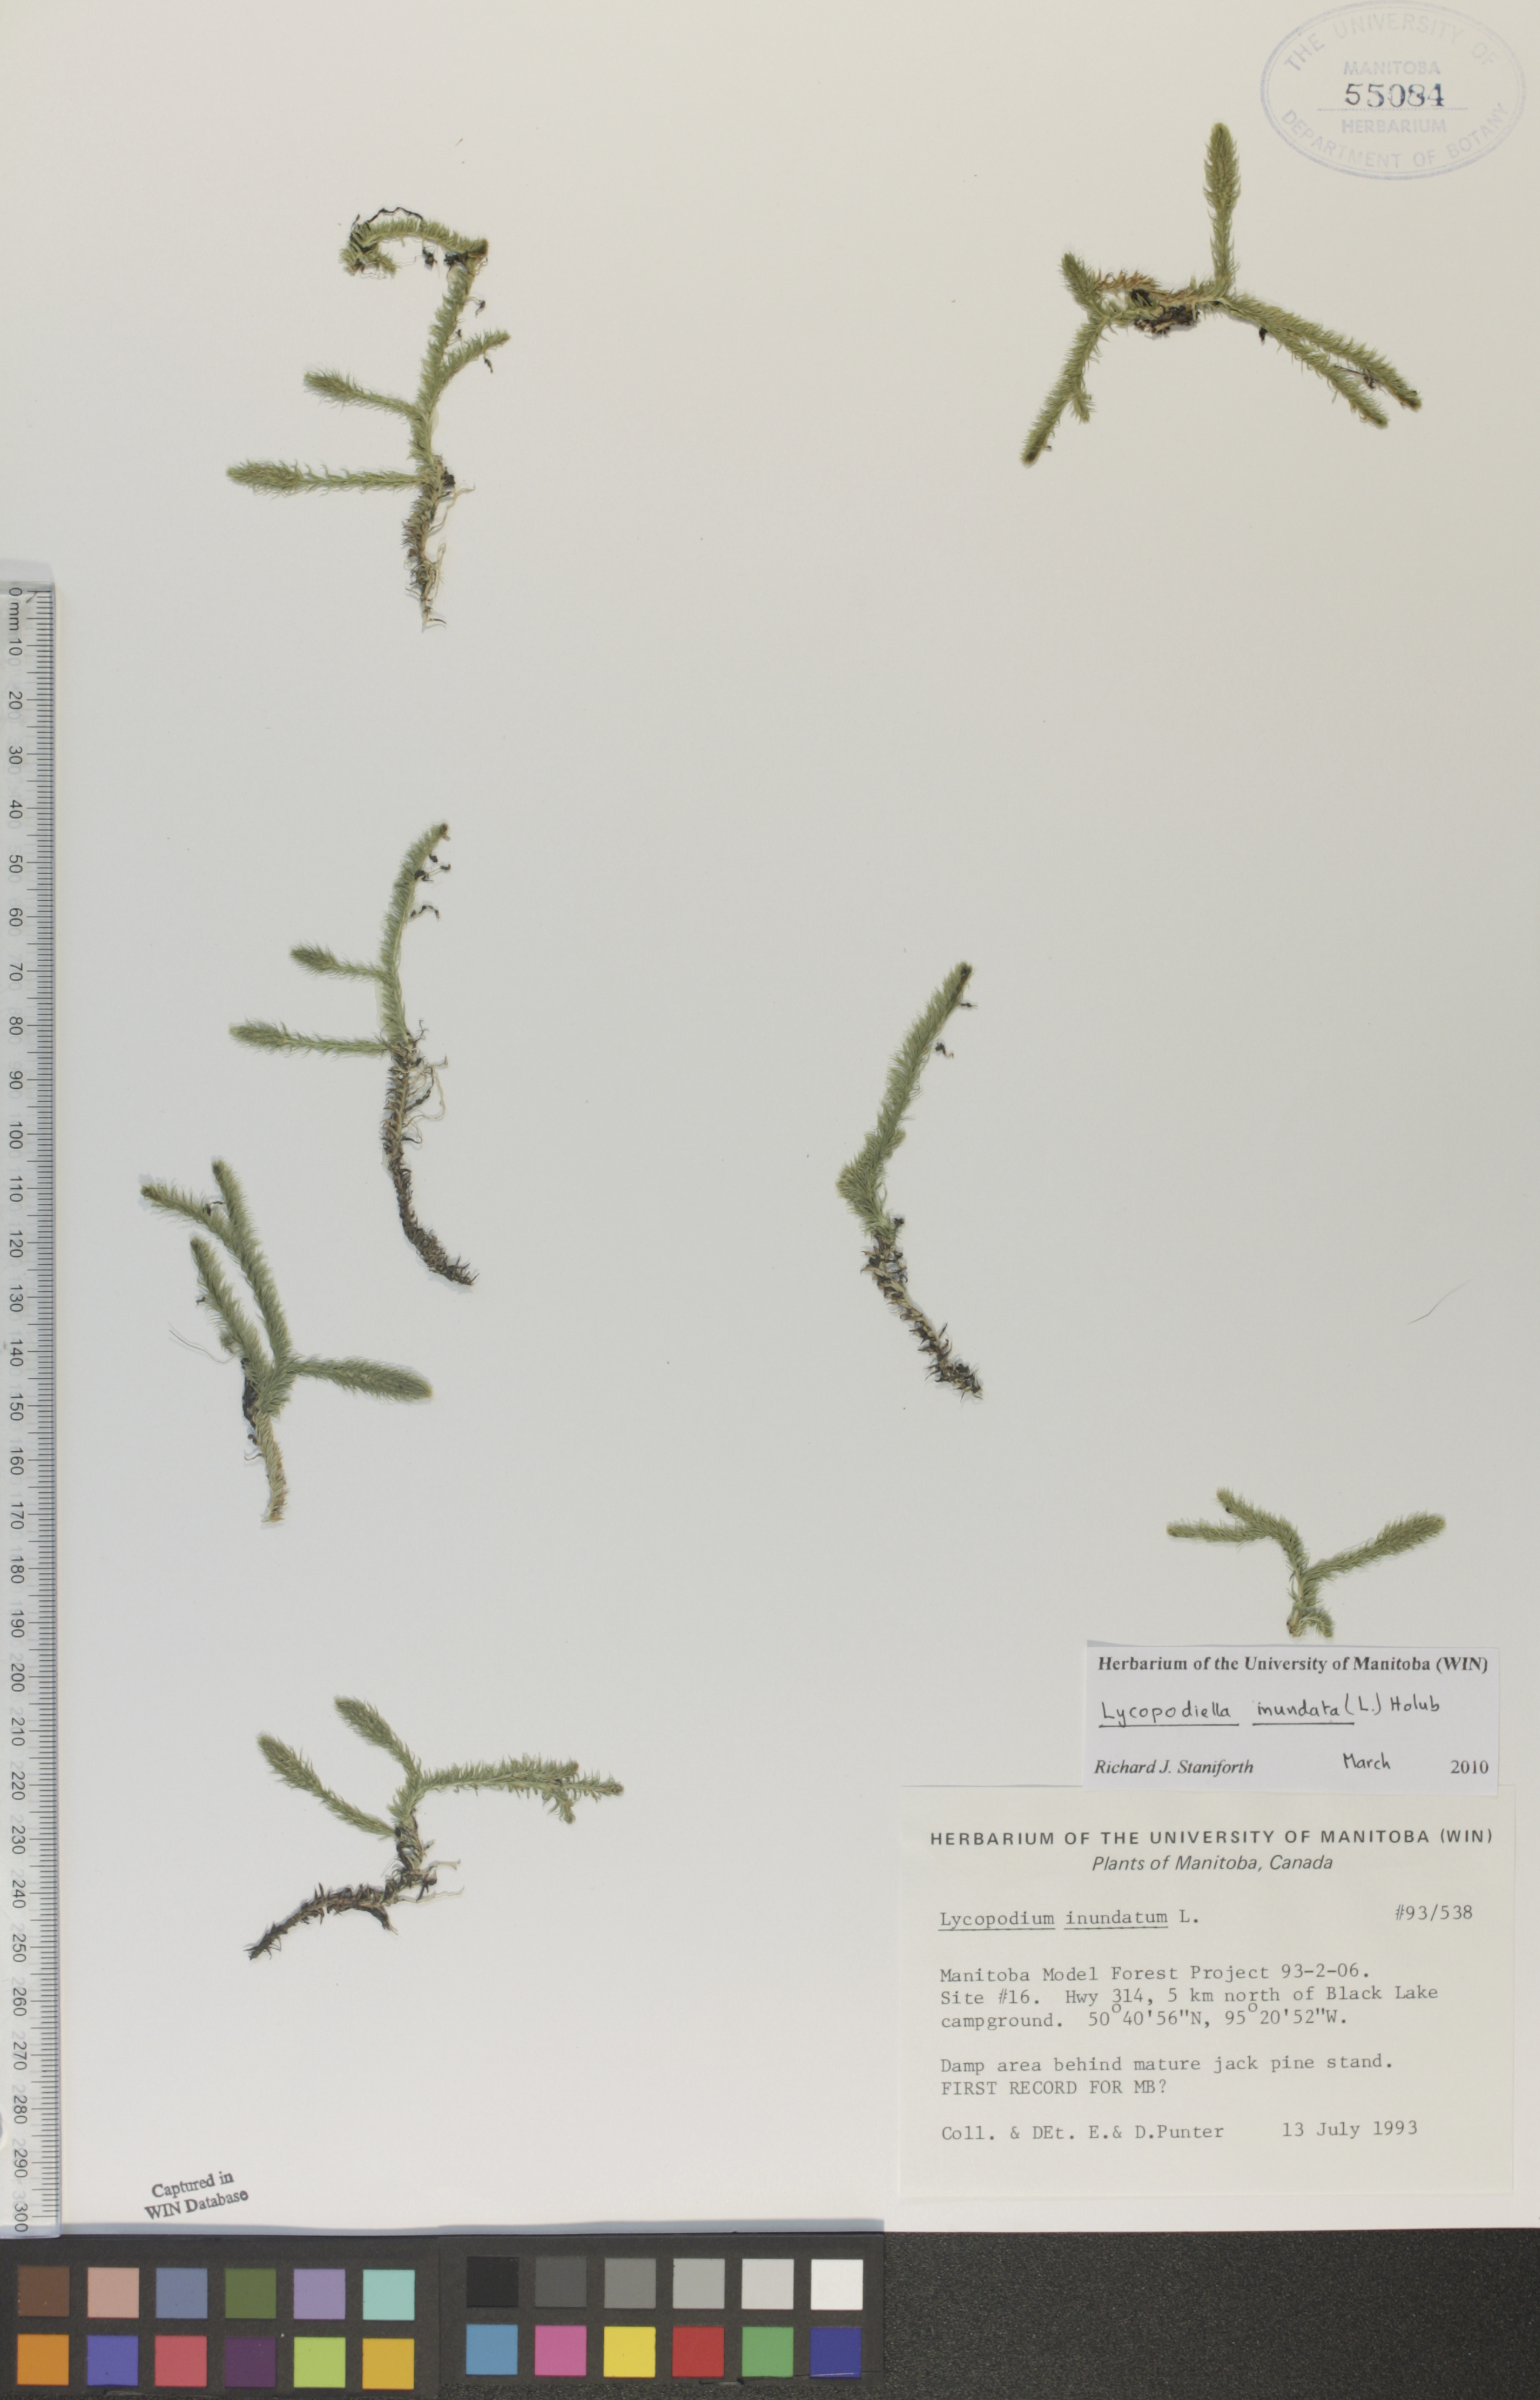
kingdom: Plantae
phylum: Tracheophyta
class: Lycopodiopsida
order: Lycopodiales
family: Lycopodiaceae
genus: Lycopodiella
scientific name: Lycopodiella inundata
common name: Marsh clubmoss
